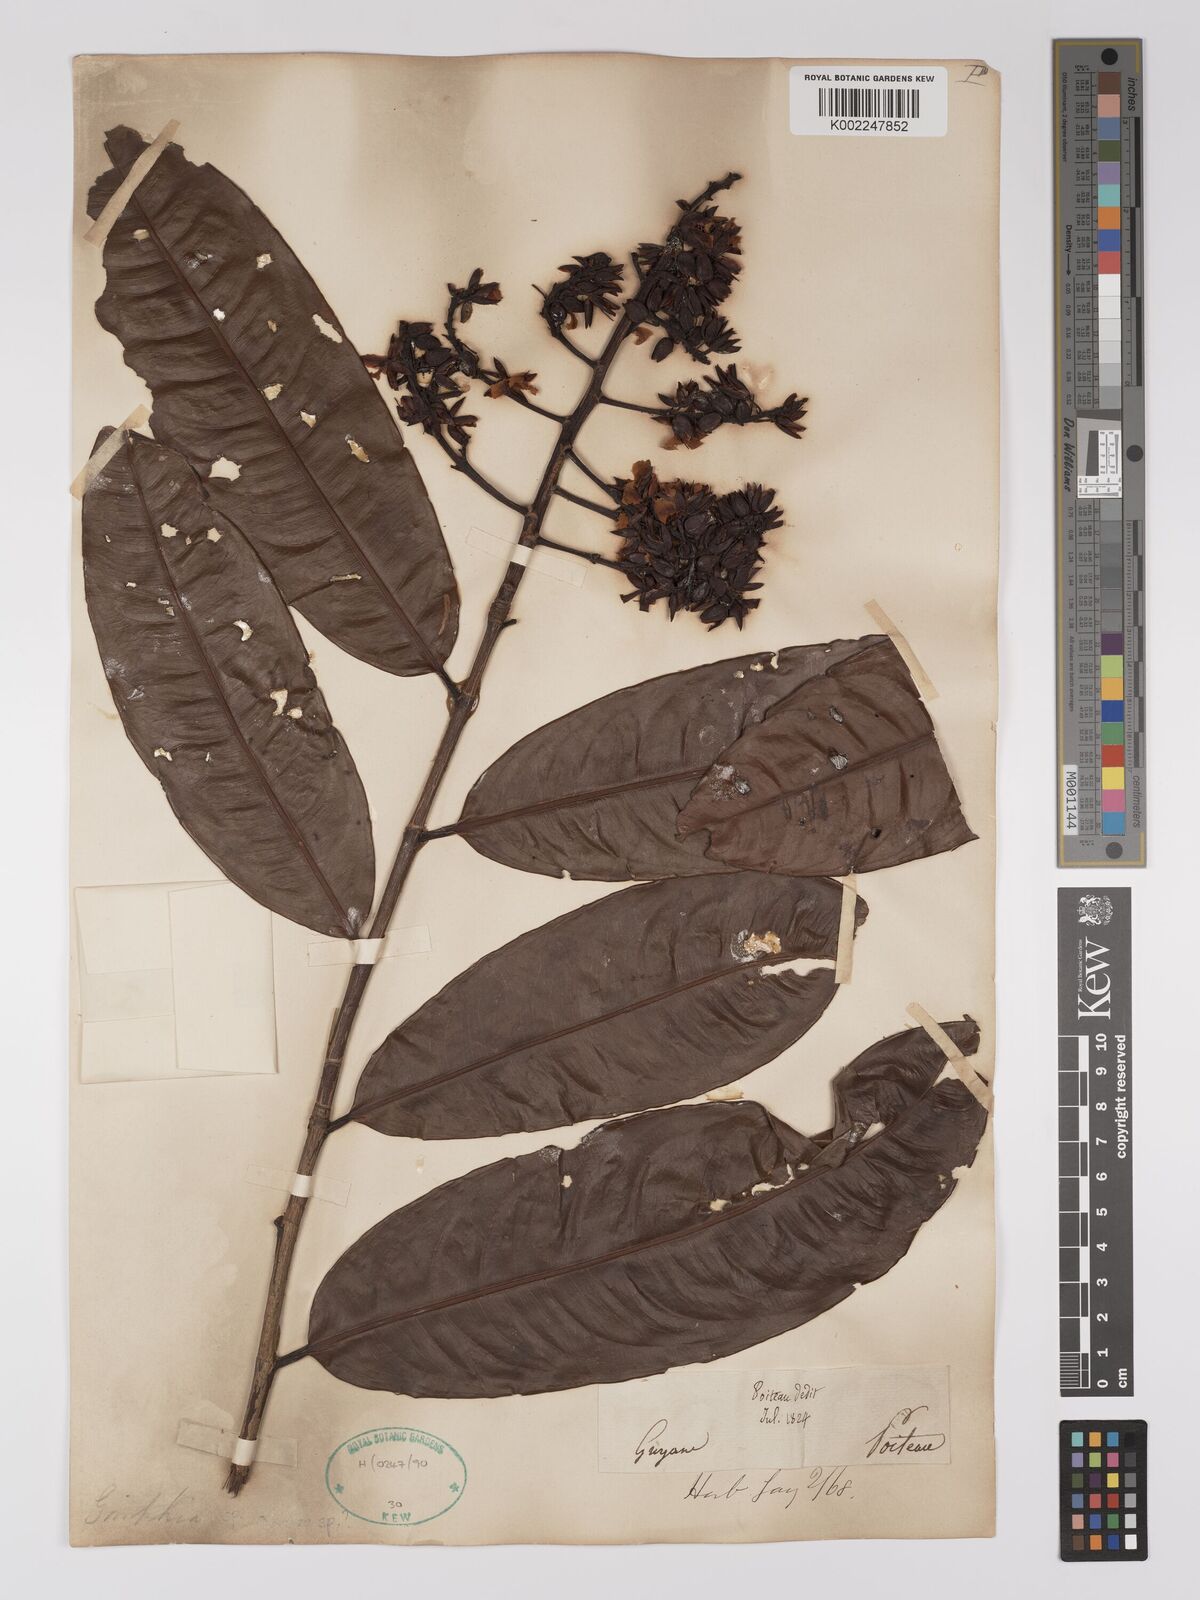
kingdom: Plantae
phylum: Tracheophyta
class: Magnoliopsida
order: Malpighiales
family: Ochnaceae
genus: Ouratea
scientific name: Ouratea
